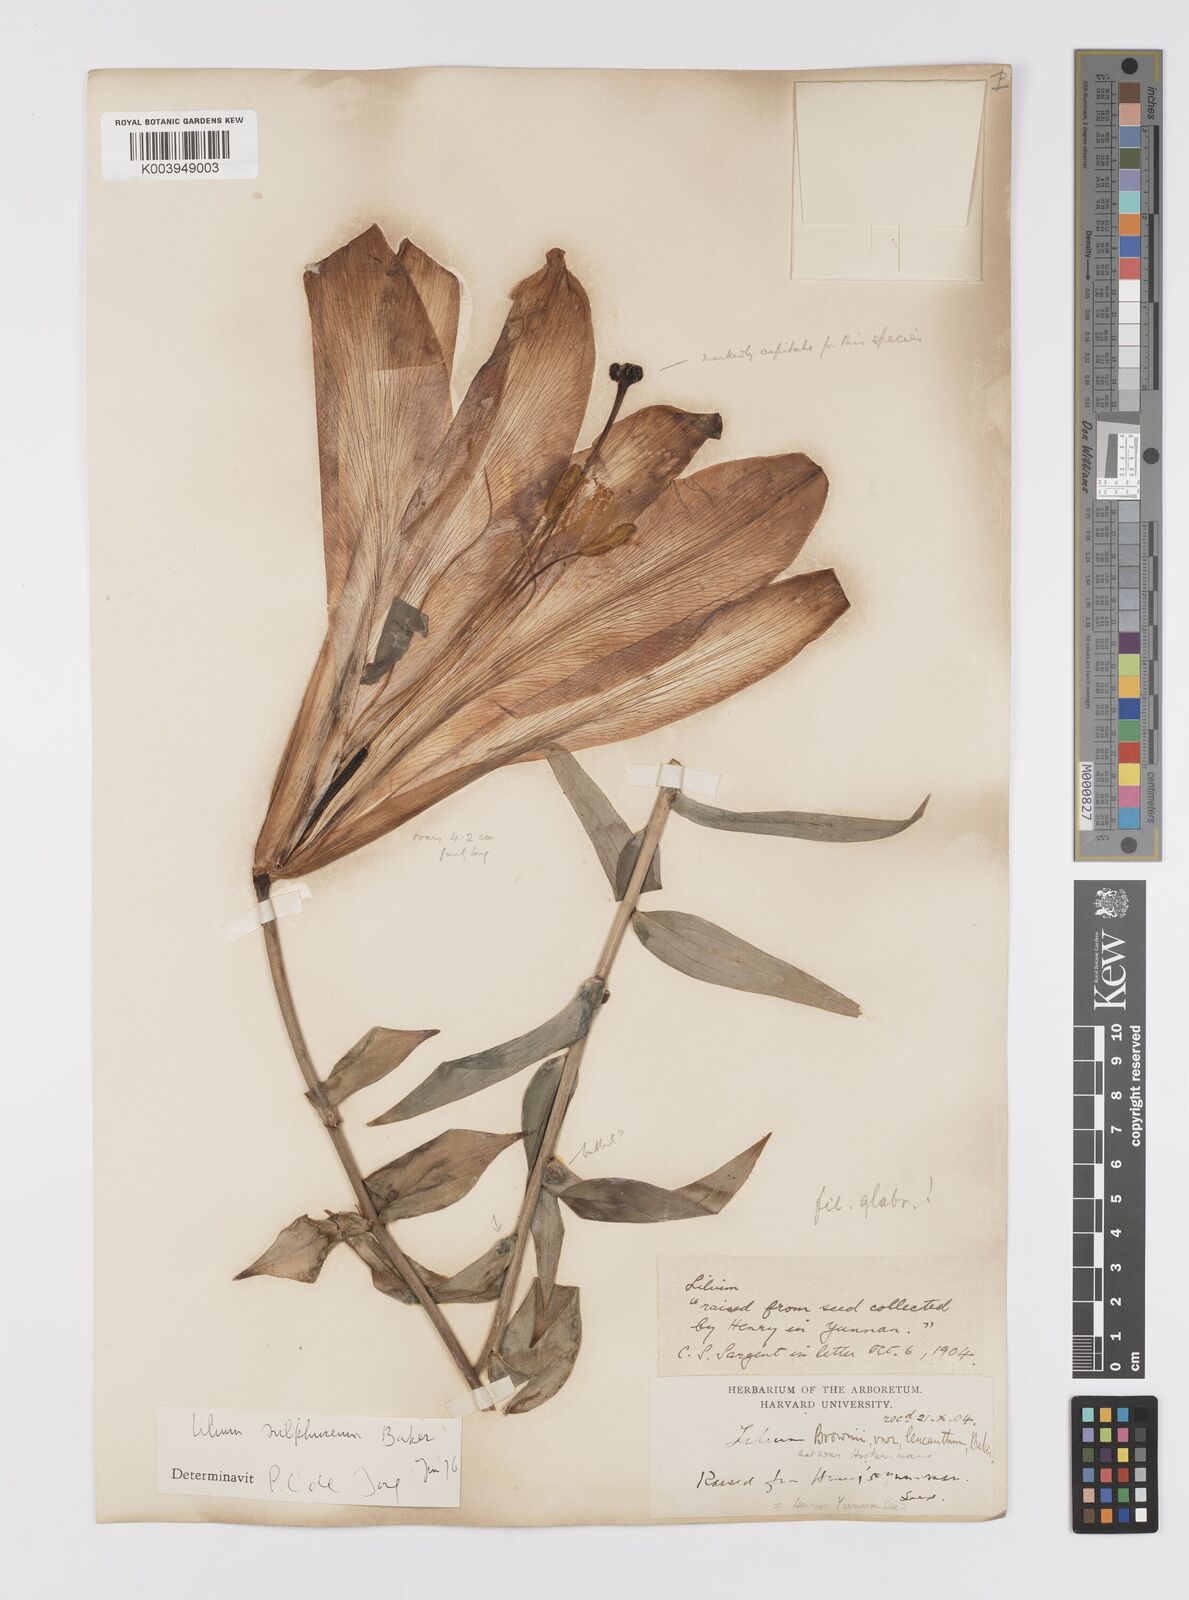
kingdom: Plantae
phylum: Tracheophyta
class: Liliopsida
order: Liliales
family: Liliaceae
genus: Lilium
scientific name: Lilium
